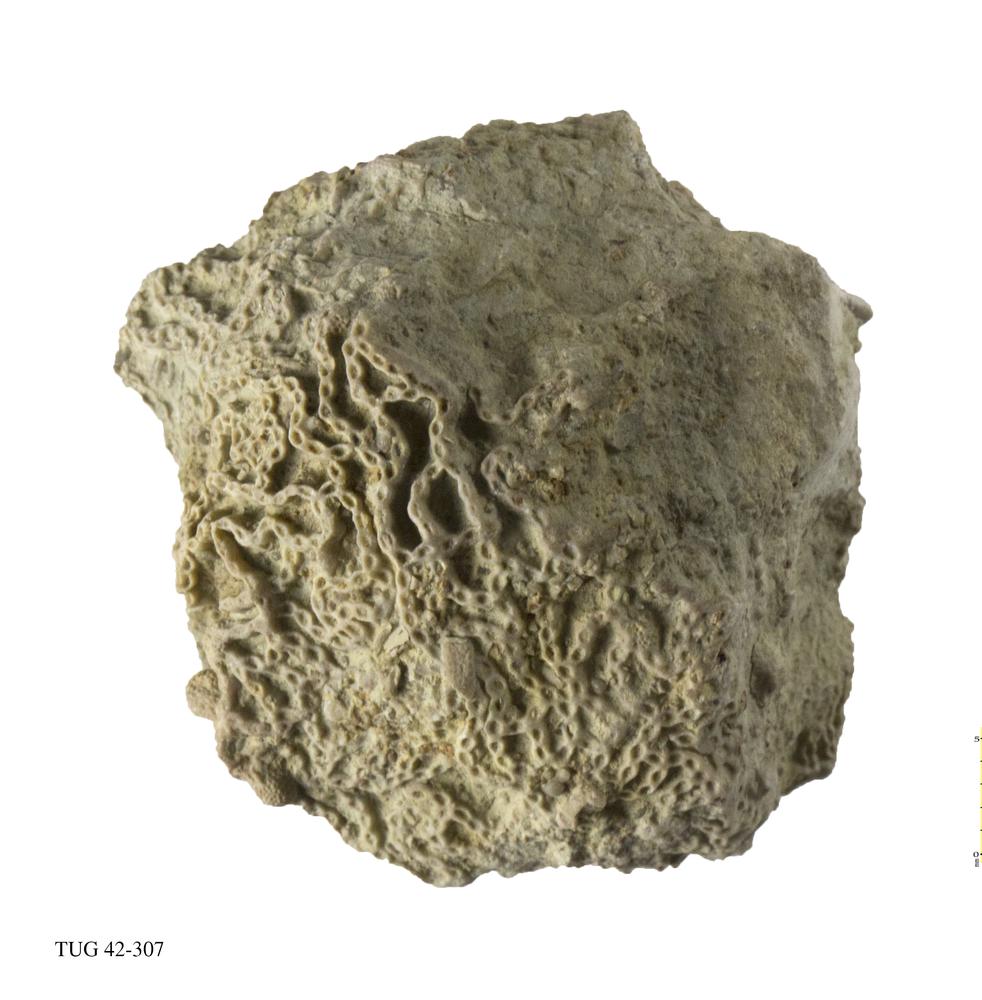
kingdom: Animalia
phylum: Cnidaria
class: Anthozoa
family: Cateniporidae
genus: Catenipora
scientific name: Catenipora
